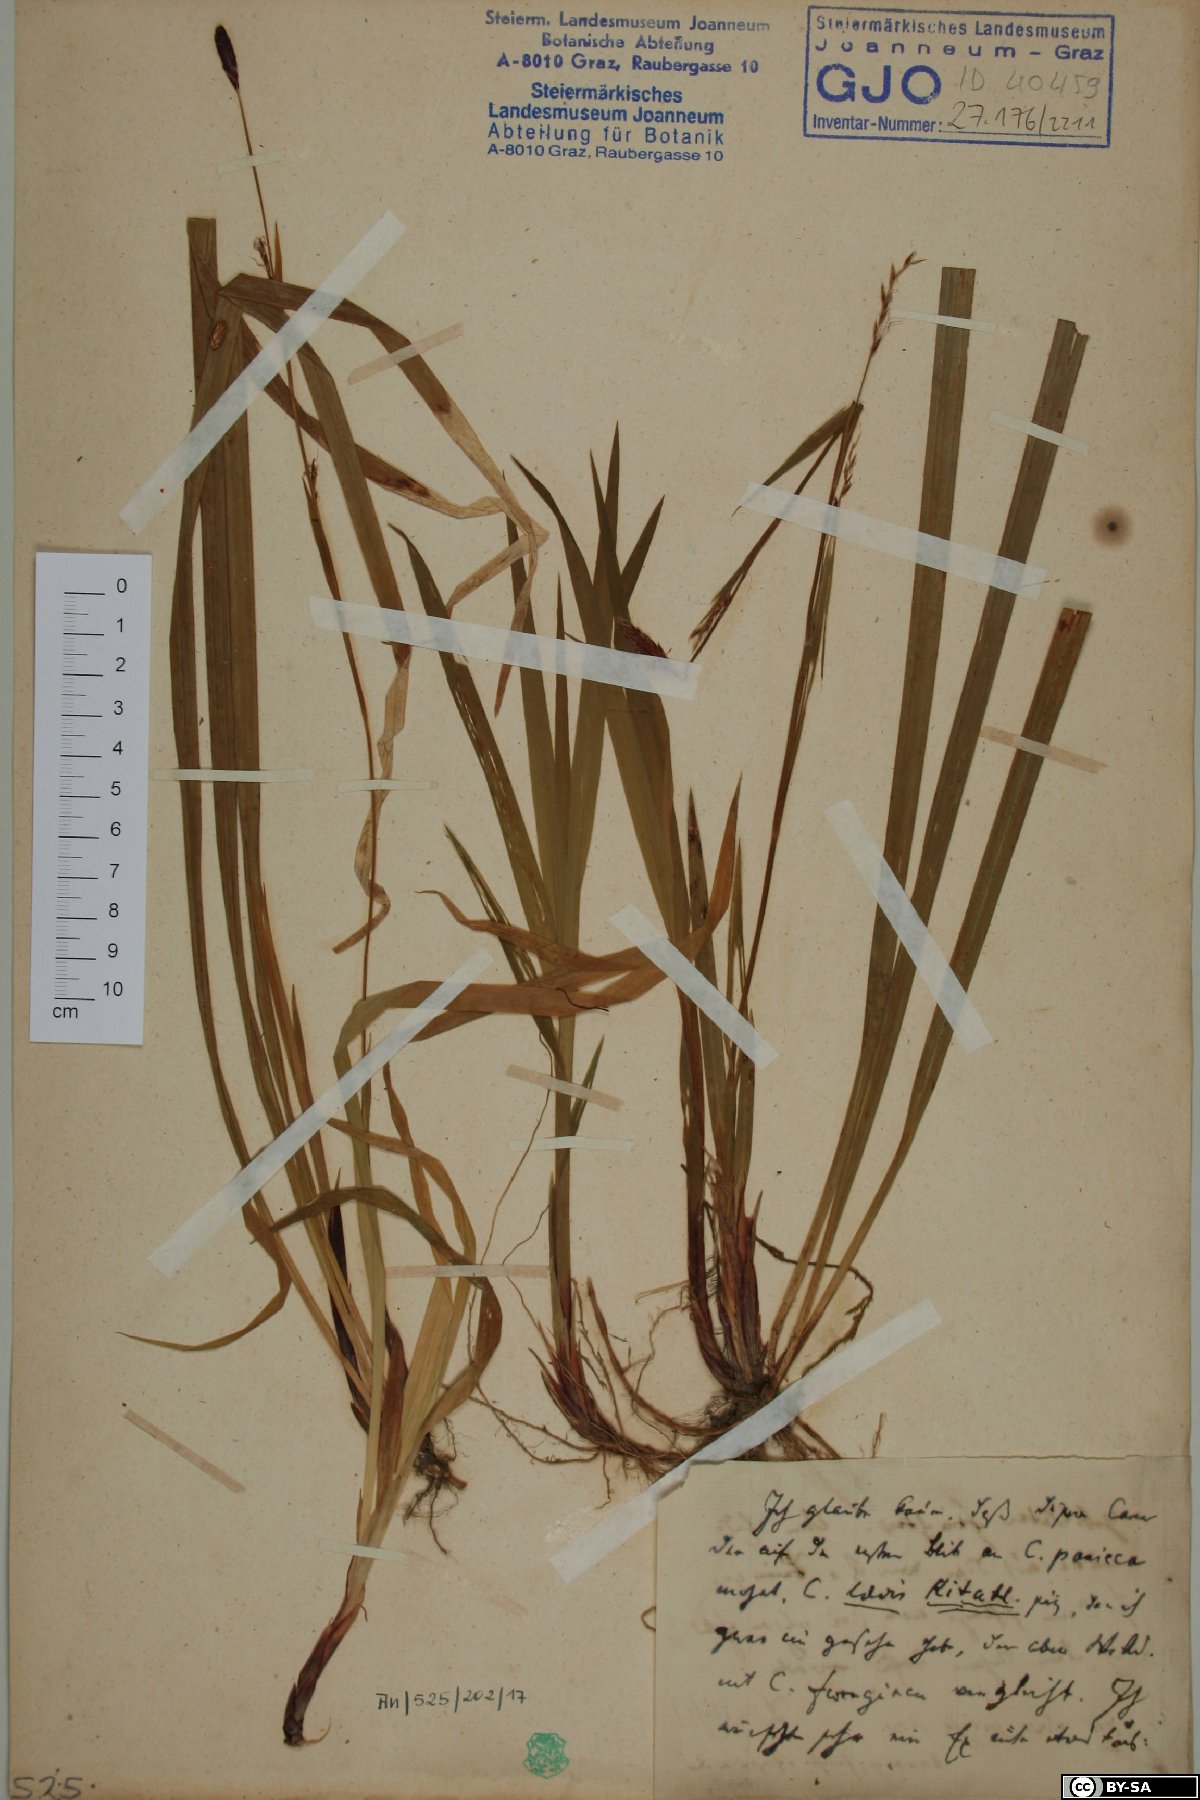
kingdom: Plantae
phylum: Tracheophyta
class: Liliopsida
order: Poales
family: Cyperaceae
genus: Carex
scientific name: Carex pilosa
